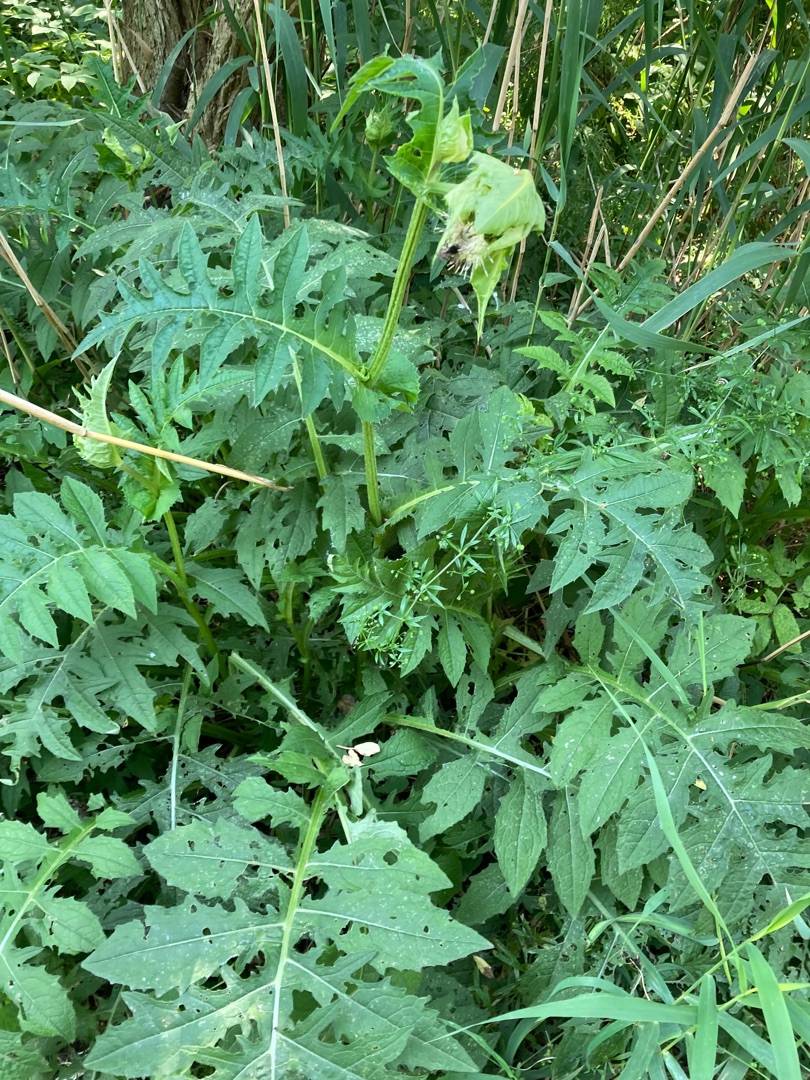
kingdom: Plantae
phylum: Tracheophyta
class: Magnoliopsida
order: Asterales
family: Asteraceae
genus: Cirsium
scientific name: Cirsium oleraceum
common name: Kål-tidsel
